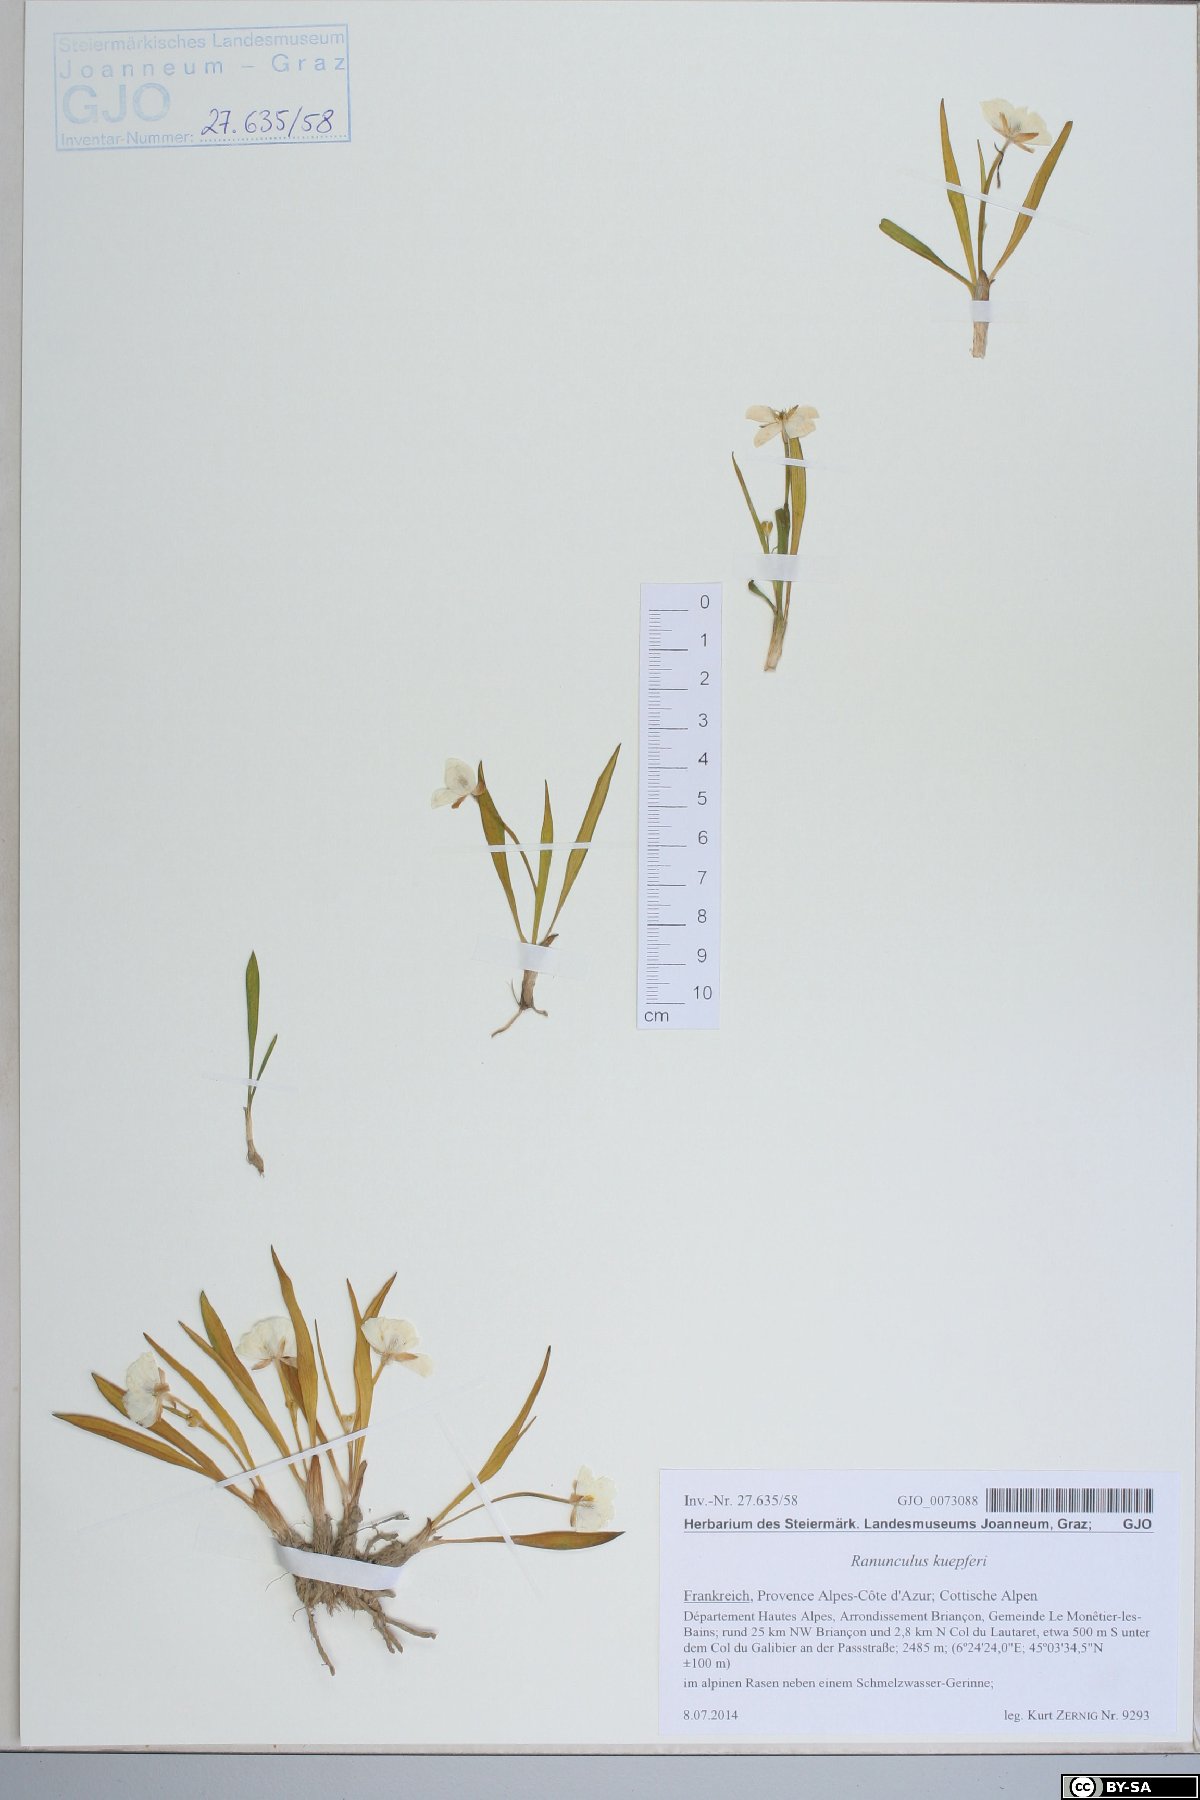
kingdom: Plantae
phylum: Tracheophyta
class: Magnoliopsida
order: Ranunculales
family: Ranunculaceae
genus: Ranunculus
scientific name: Ranunculus kuepferi
